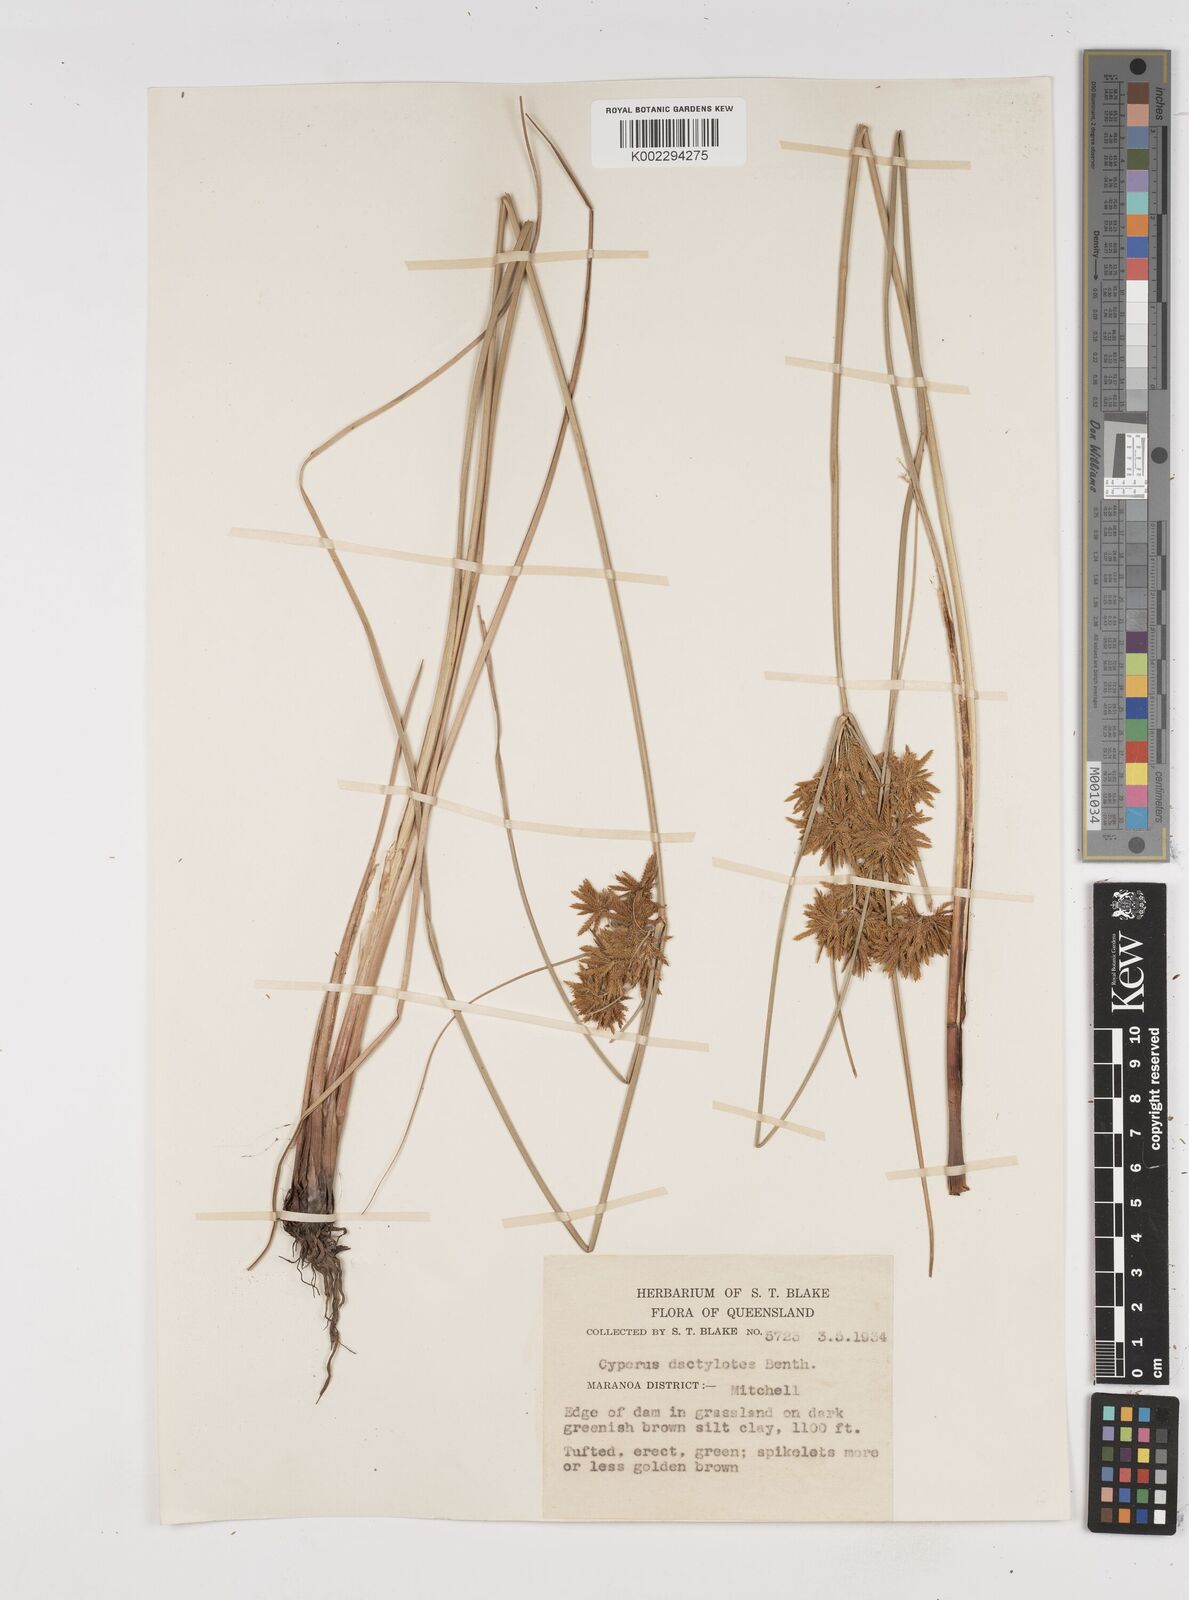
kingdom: Plantae
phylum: Tracheophyta
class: Liliopsida
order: Poales
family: Cyperaceae
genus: Cyperus
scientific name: Cyperus dactylotes
